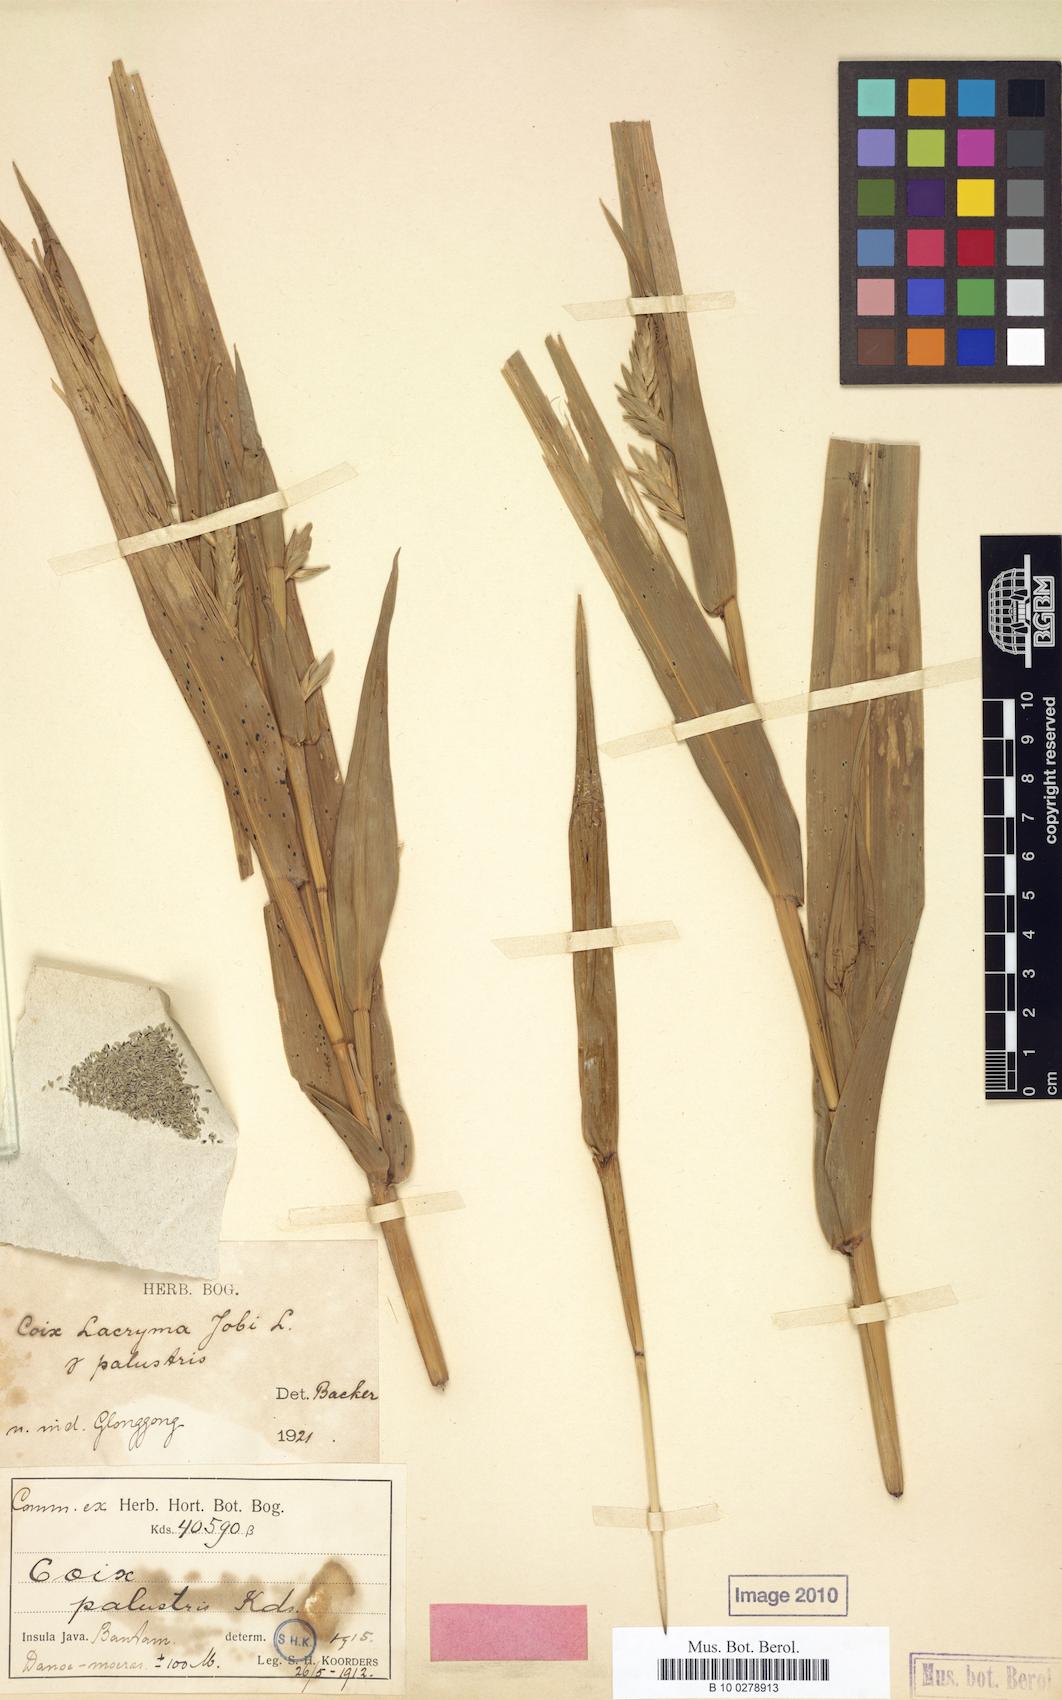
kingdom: Plantae
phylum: Tracheophyta
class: Liliopsida
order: Poales
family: Poaceae
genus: Coix
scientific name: Coix lacryma-jobi
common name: Job's tears
